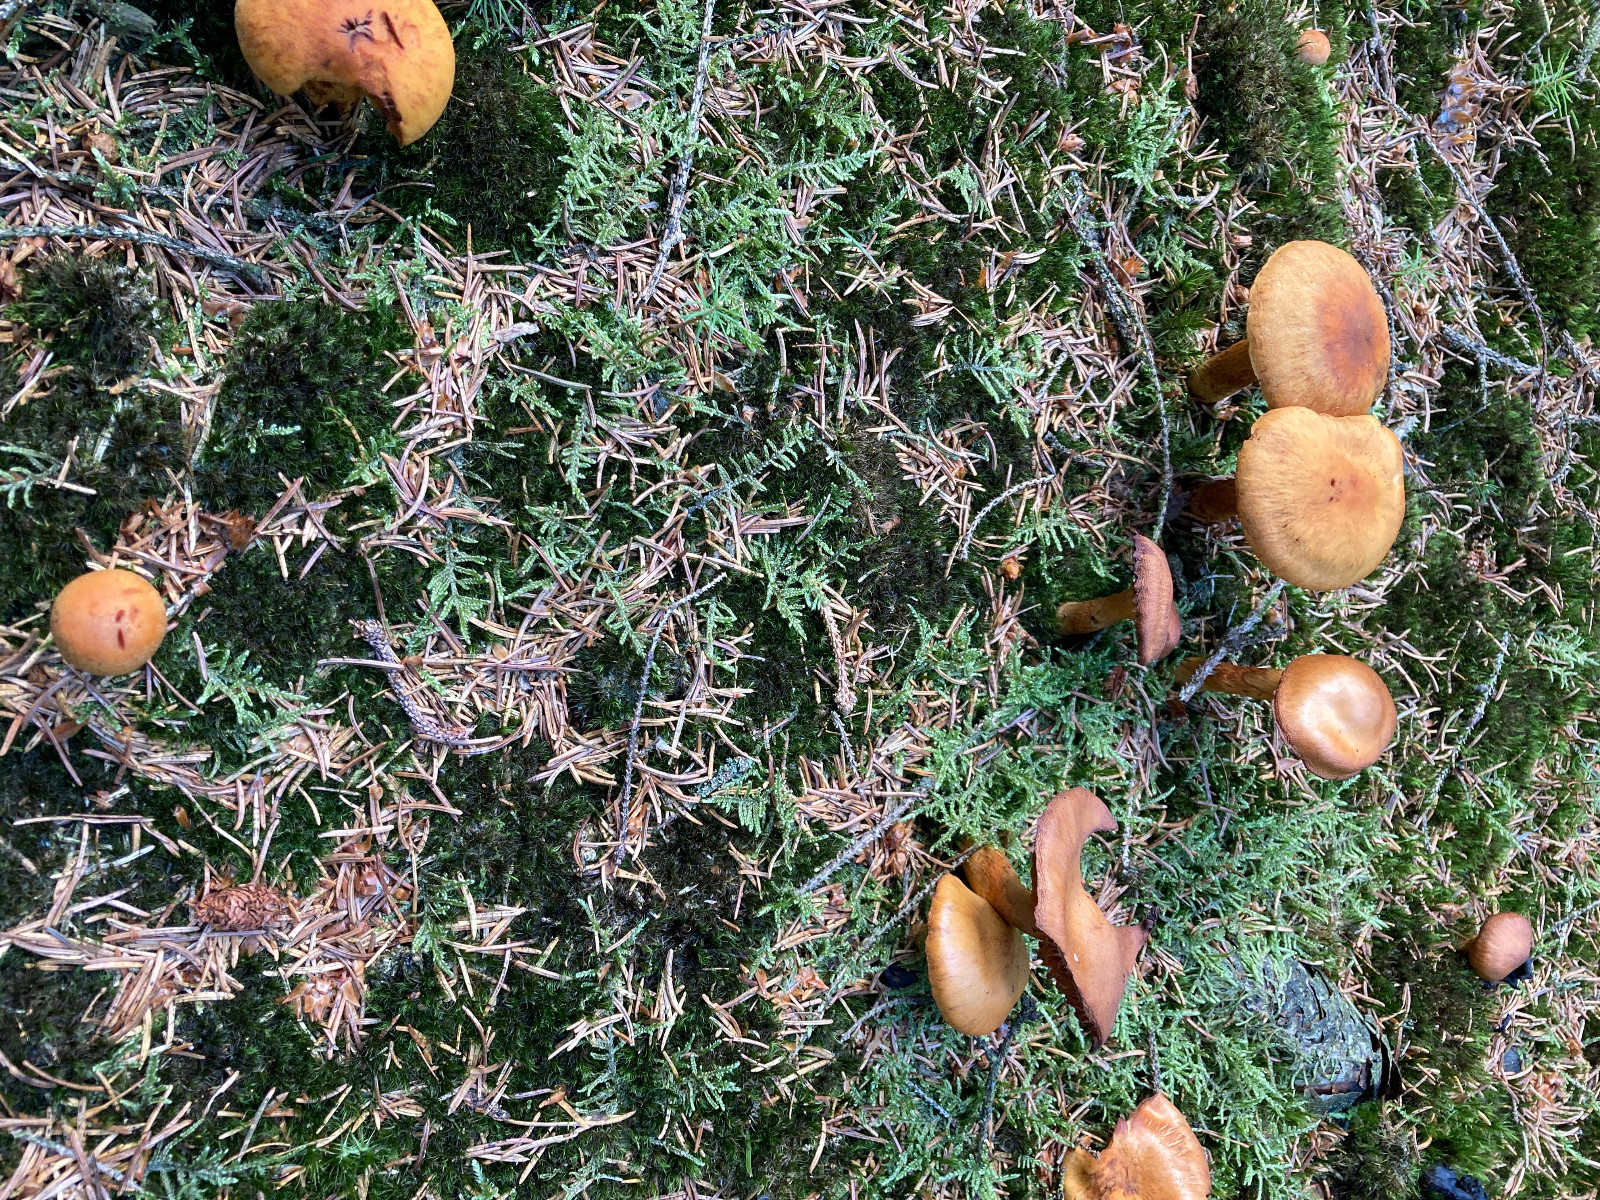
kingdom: Fungi
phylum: Basidiomycota
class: Agaricomycetes
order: Agaricales
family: Cortinariaceae
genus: Aureonarius
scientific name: Aureonarius limonius
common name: orangegul slørhat
